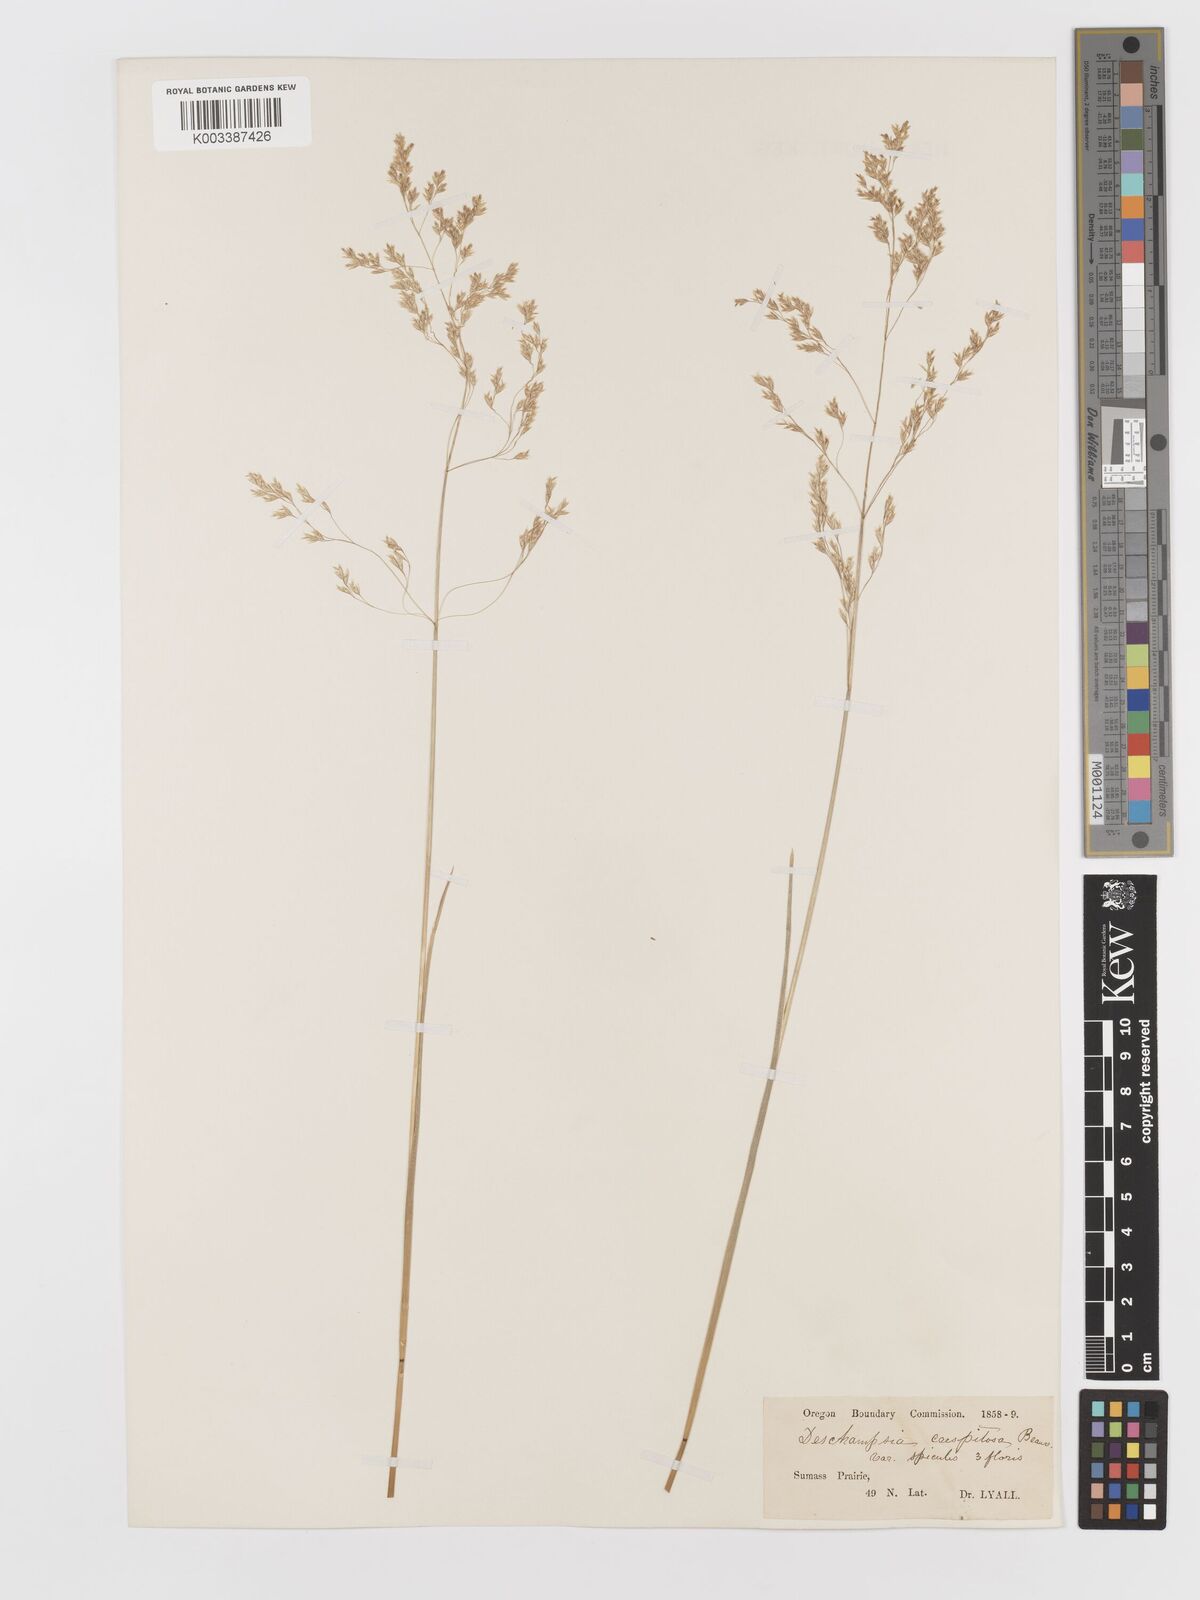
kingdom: Plantae
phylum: Tracheophyta
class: Liliopsida
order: Poales
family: Poaceae
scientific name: Poaceae
